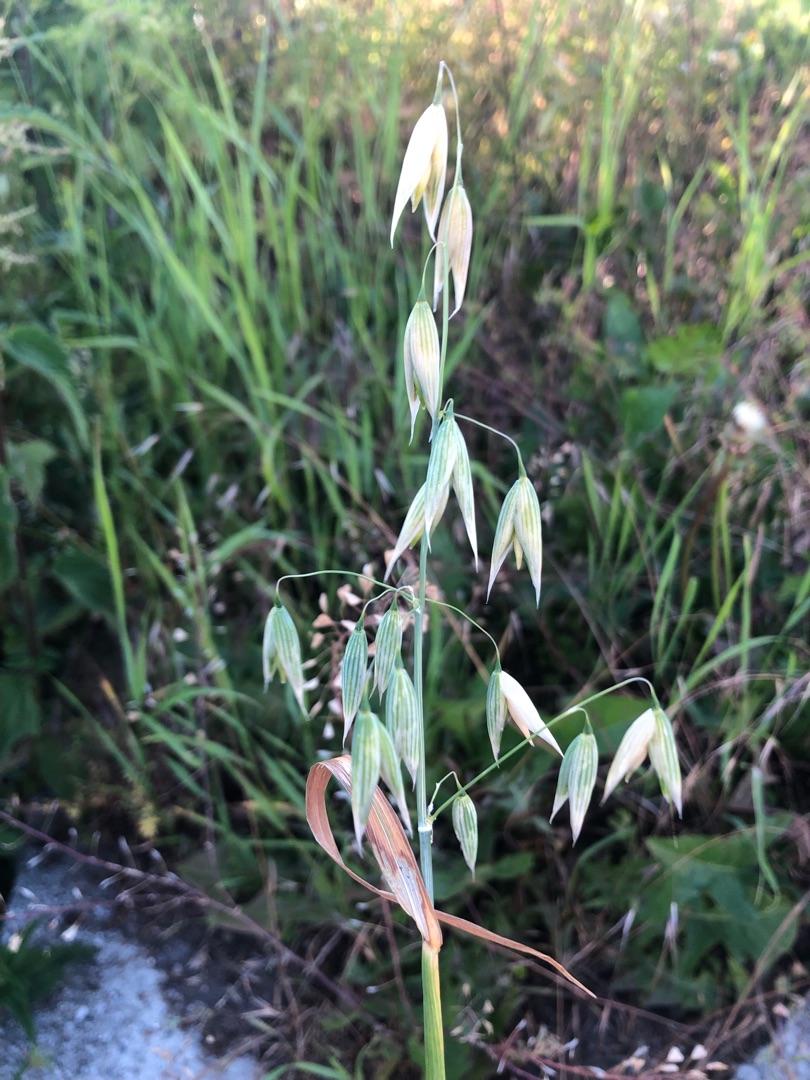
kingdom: Plantae
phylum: Tracheophyta
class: Liliopsida
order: Poales
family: Poaceae
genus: Avena
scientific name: Avena sativa
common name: Almindelig havre
